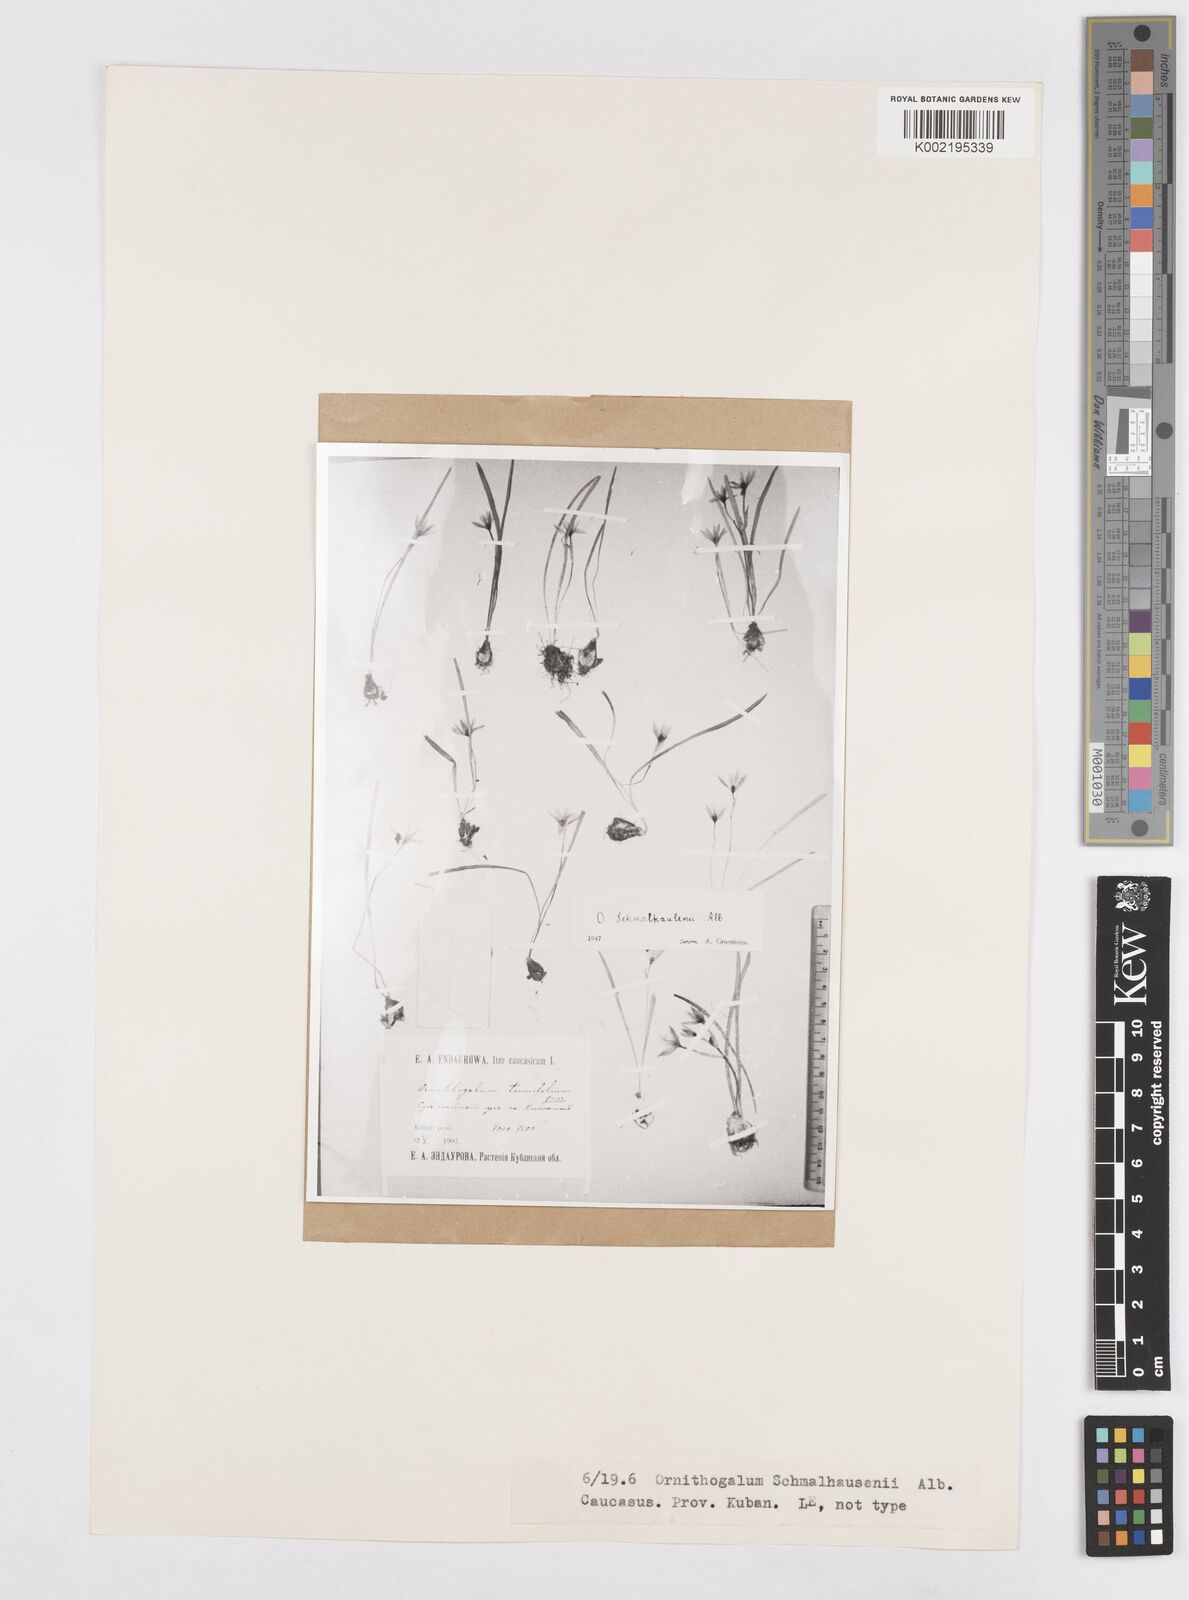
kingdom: Plantae
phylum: Tracheophyta
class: Liliopsida
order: Asparagales
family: Asparagaceae
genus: Ornithogalum
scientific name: Ornithogalum balansae
